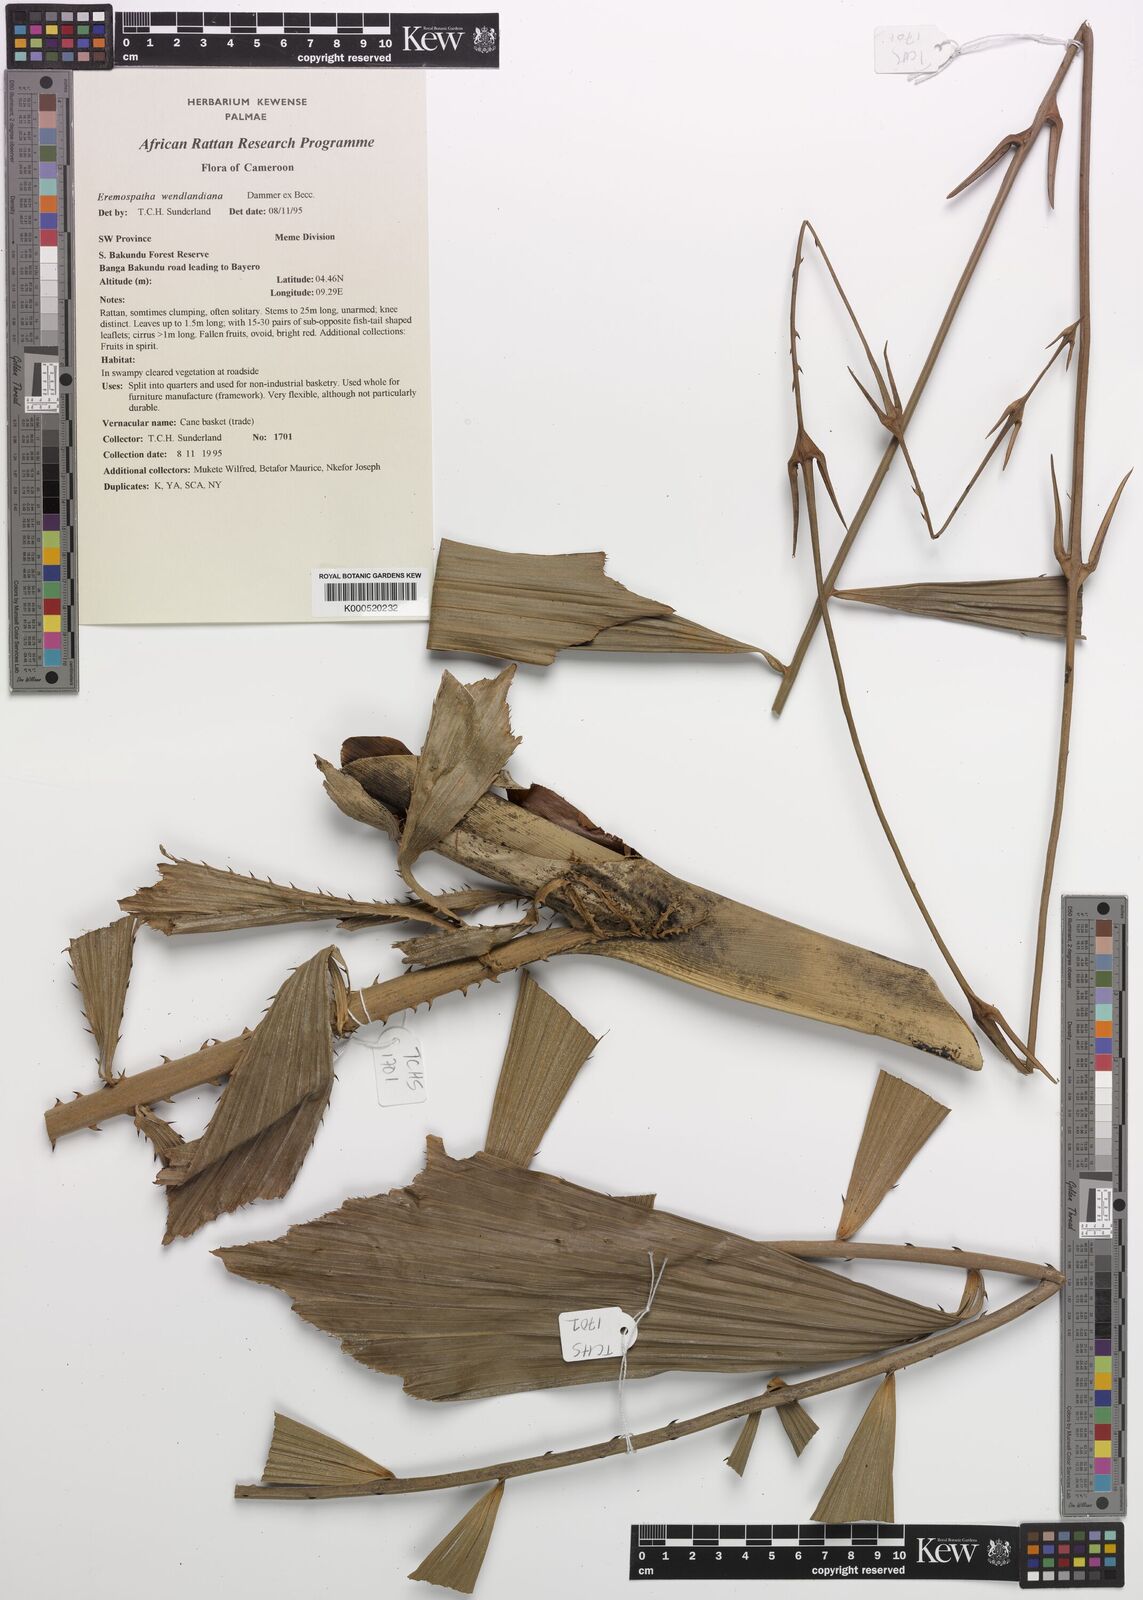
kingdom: Plantae
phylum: Tracheophyta
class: Liliopsida
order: Arecales
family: Arecaceae
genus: Eremospatha
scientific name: Eremospatha wendlandiana
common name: Rattan
